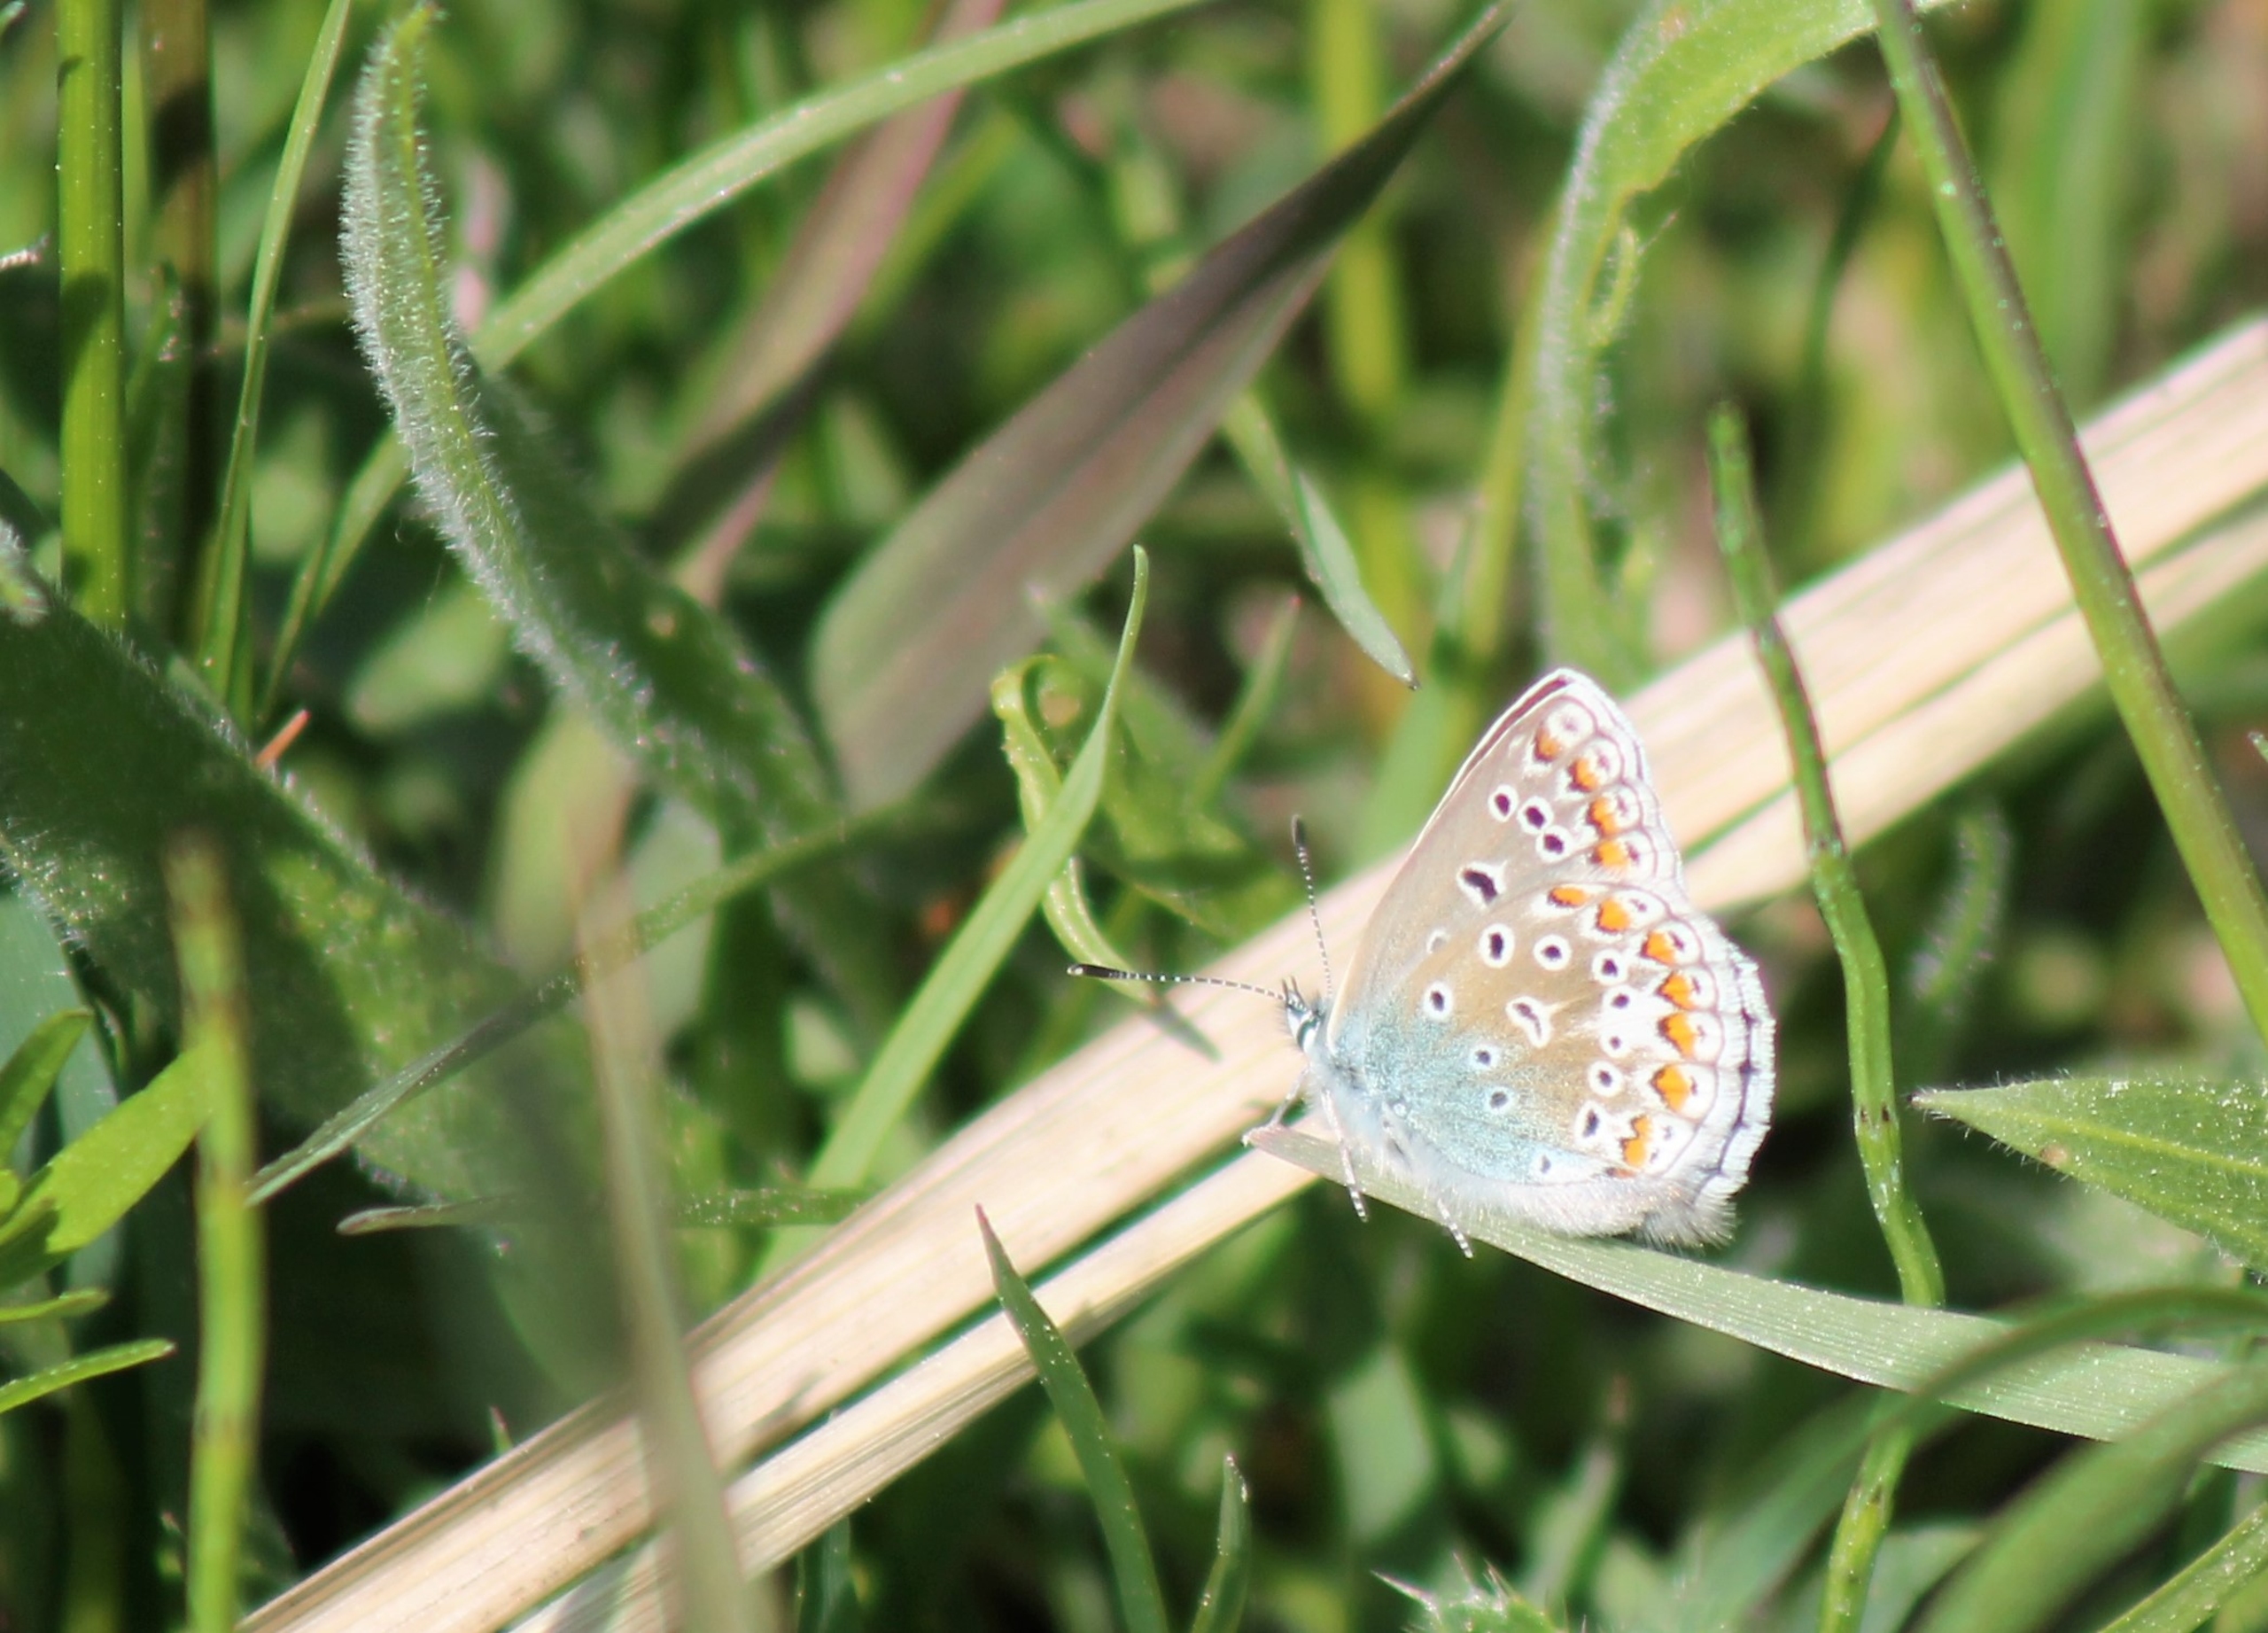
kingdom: Animalia
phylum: Arthropoda
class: Insecta
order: Lepidoptera
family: Lycaenidae
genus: Polyommatus
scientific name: Polyommatus icarus
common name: Almindelig blåfugl
